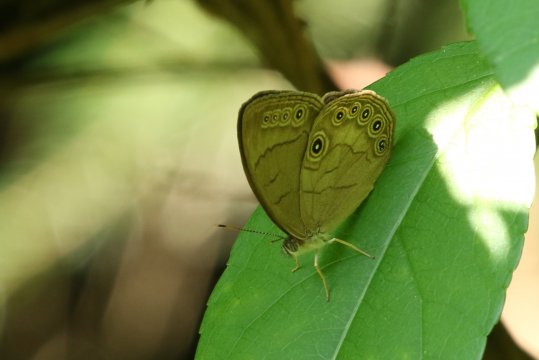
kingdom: Animalia
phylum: Arthropoda
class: Insecta
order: Lepidoptera
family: Nymphalidae
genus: Lethe
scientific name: Lethe eurydice
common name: Appalachian Eyed Brown
